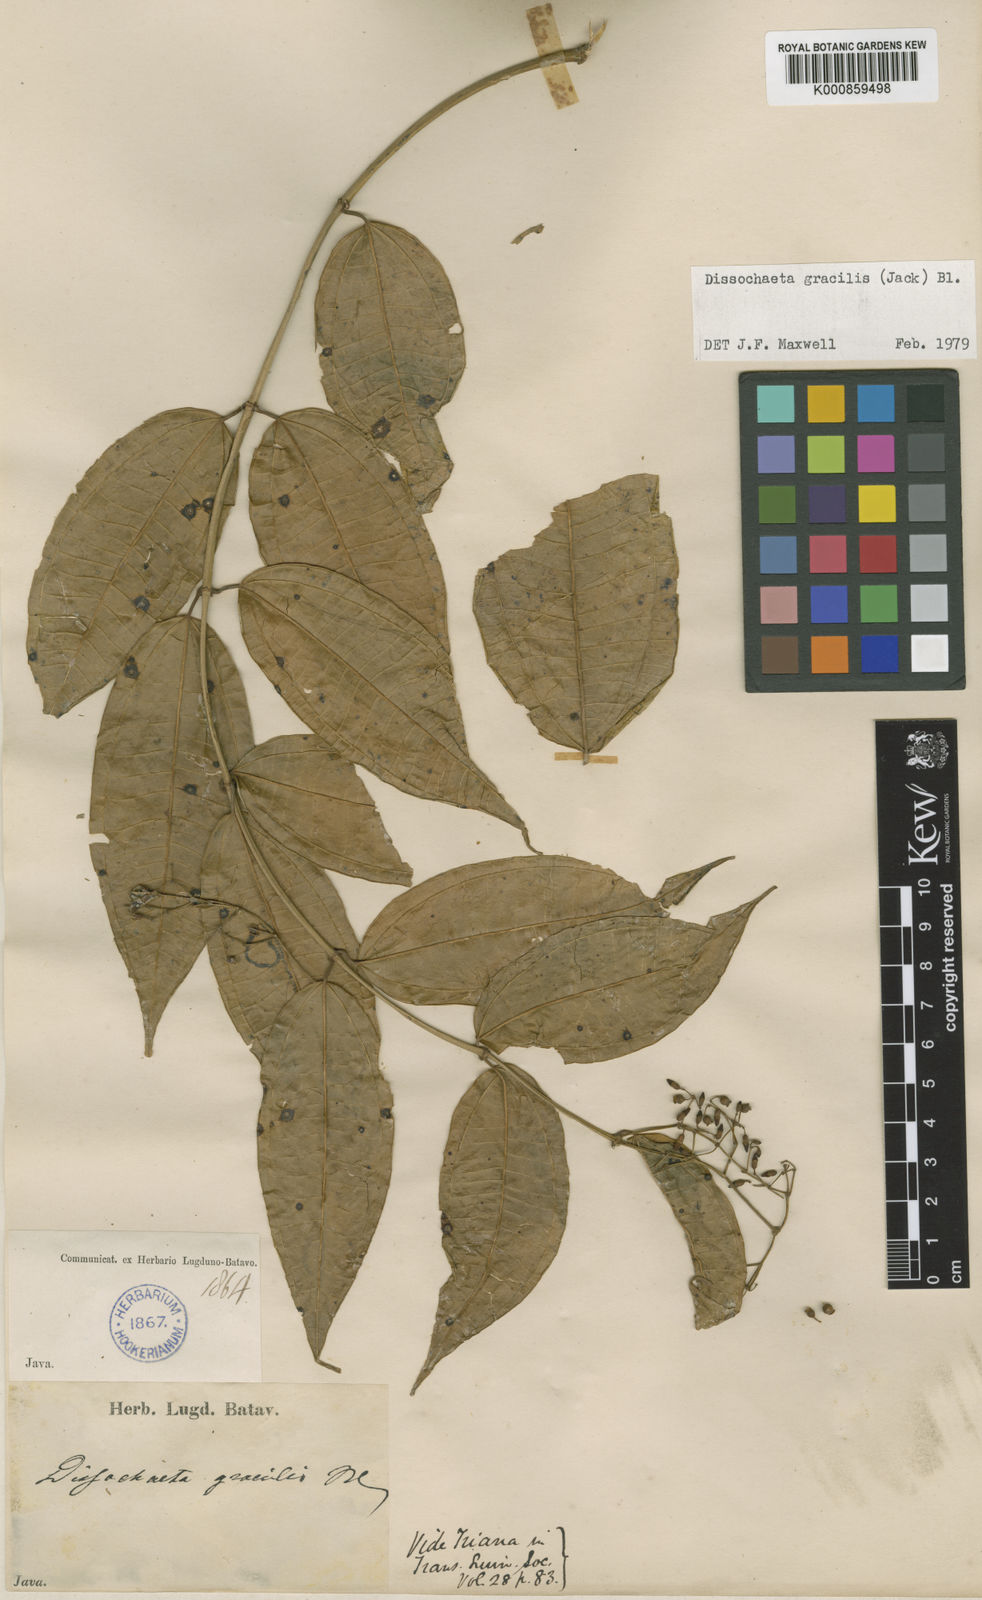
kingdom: Plantae
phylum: Tracheophyta
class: Magnoliopsida
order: Myrtales
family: Melastomataceae
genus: Dissochaeta
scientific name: Dissochaeta gracilis
